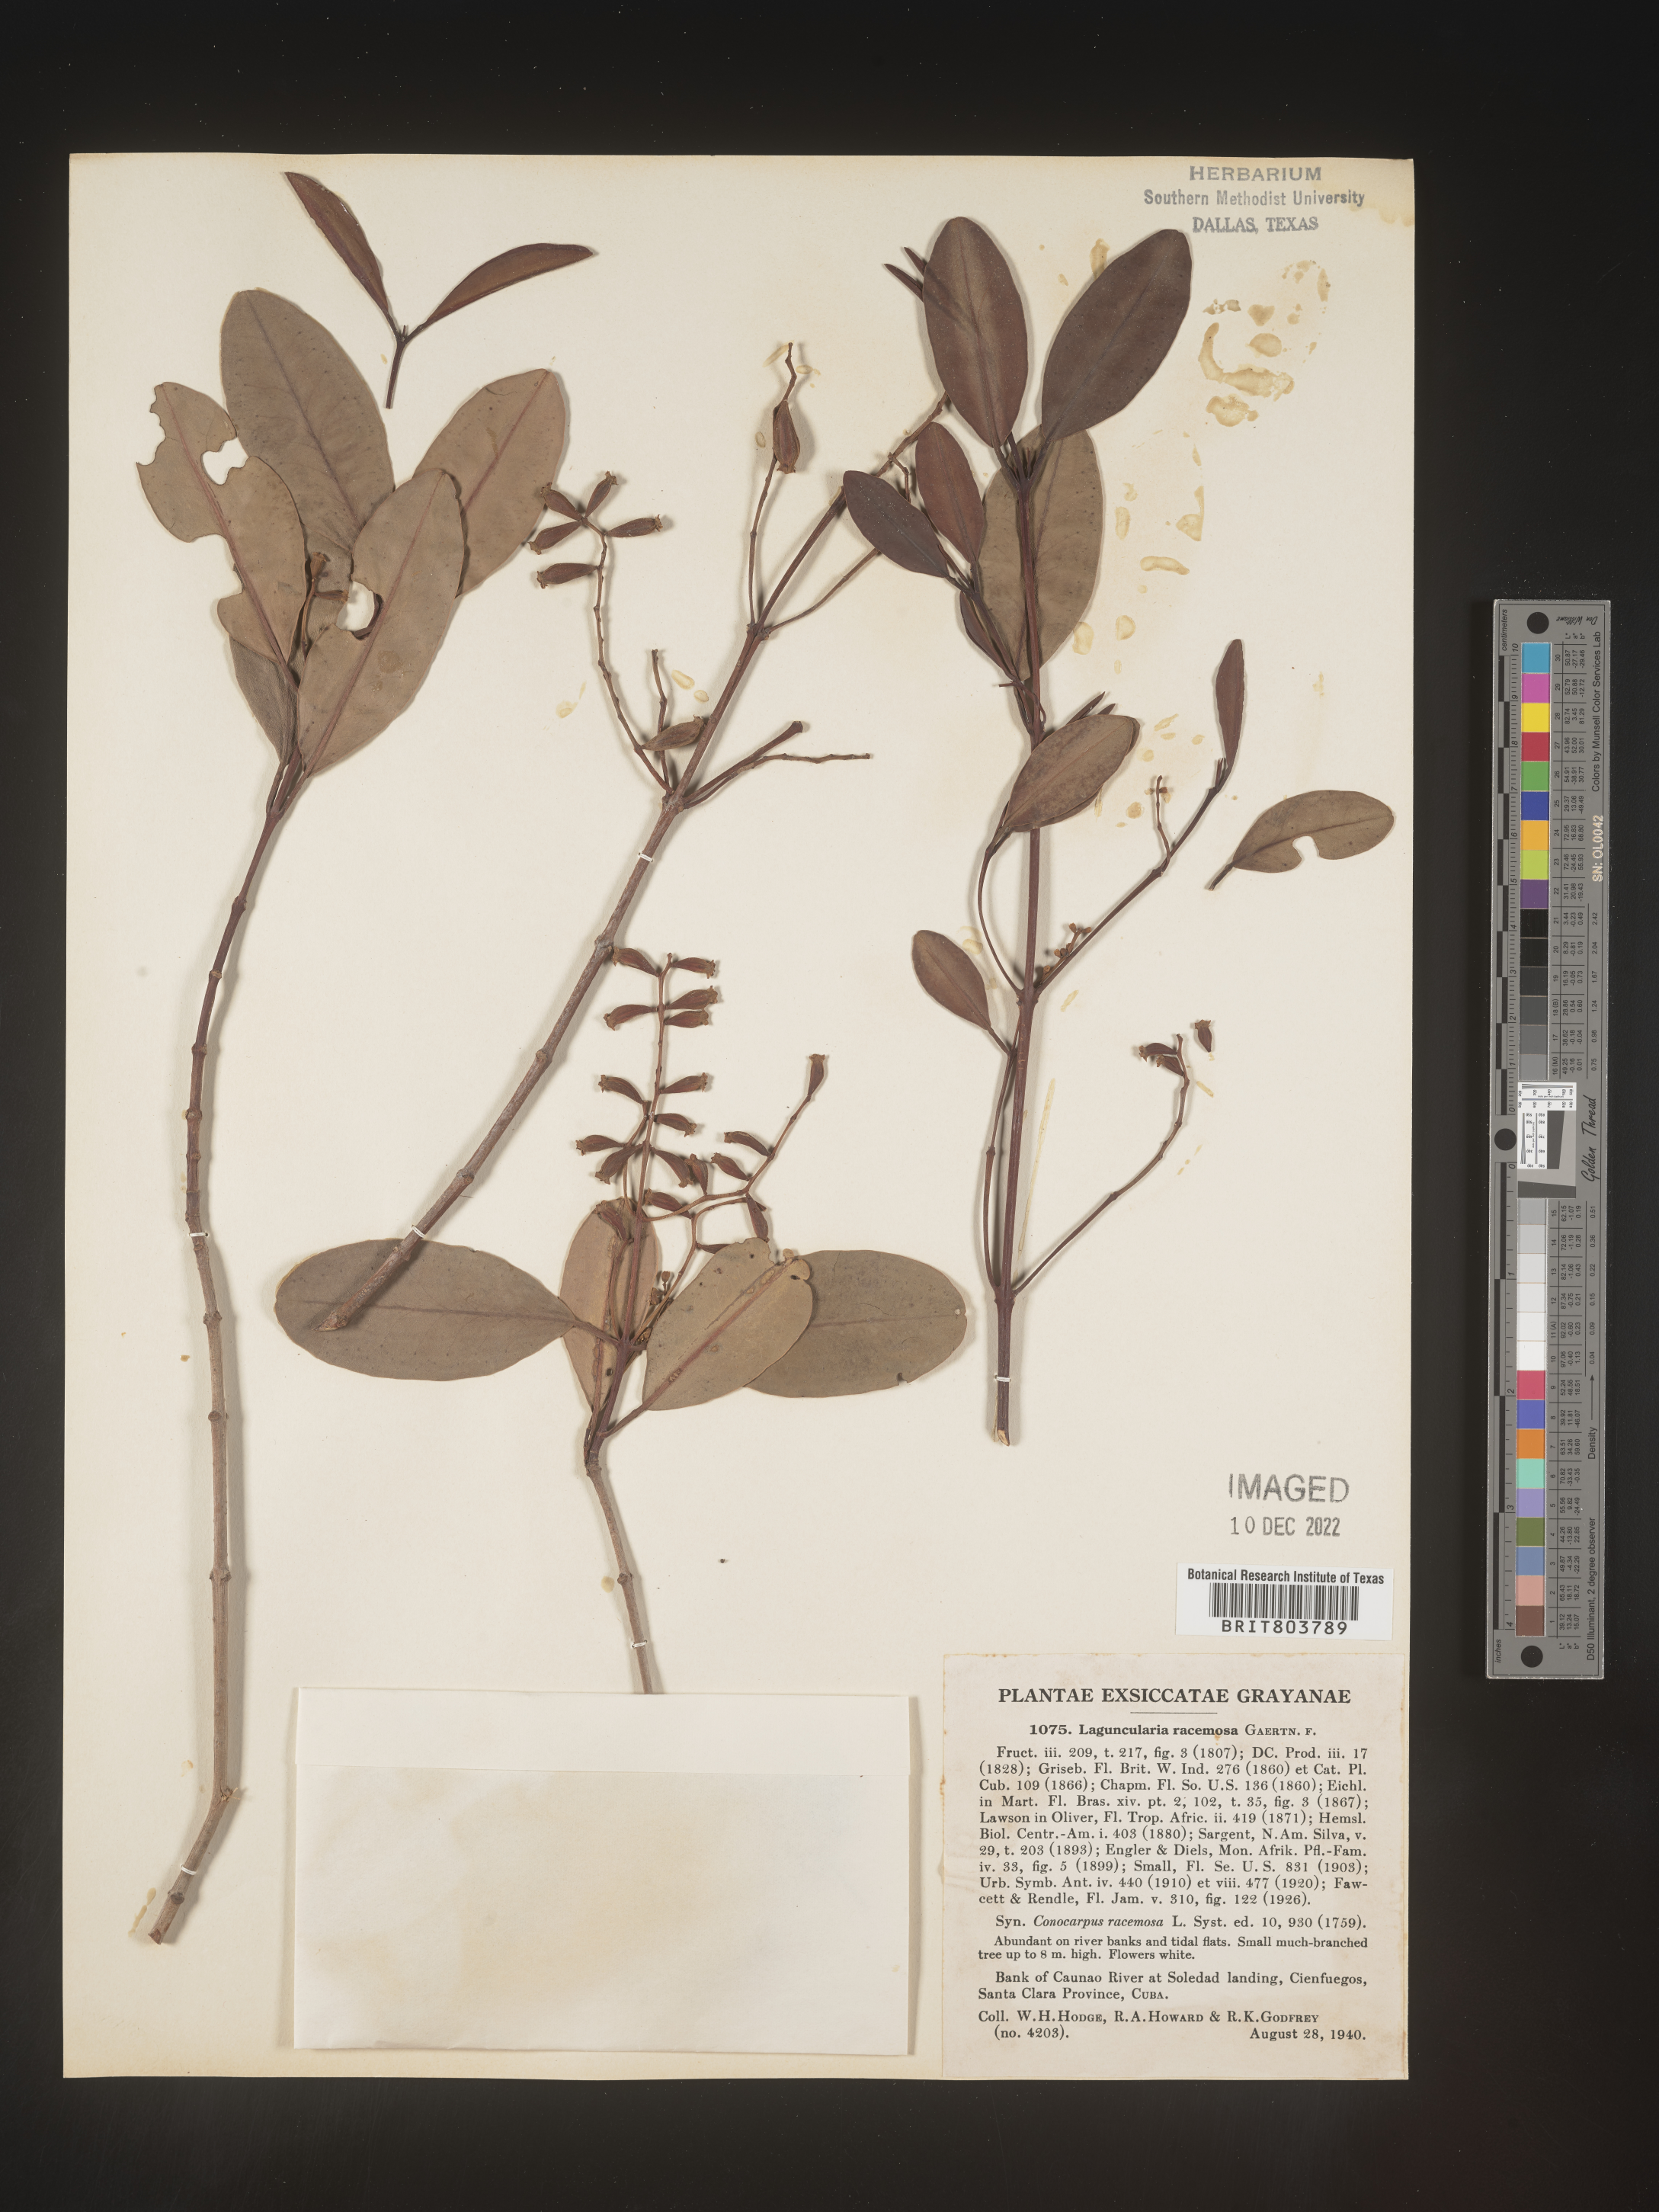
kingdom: Plantae
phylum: Tracheophyta
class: Magnoliopsida
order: Myrtales
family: Combretaceae
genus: Laguncularia
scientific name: Laguncularia
